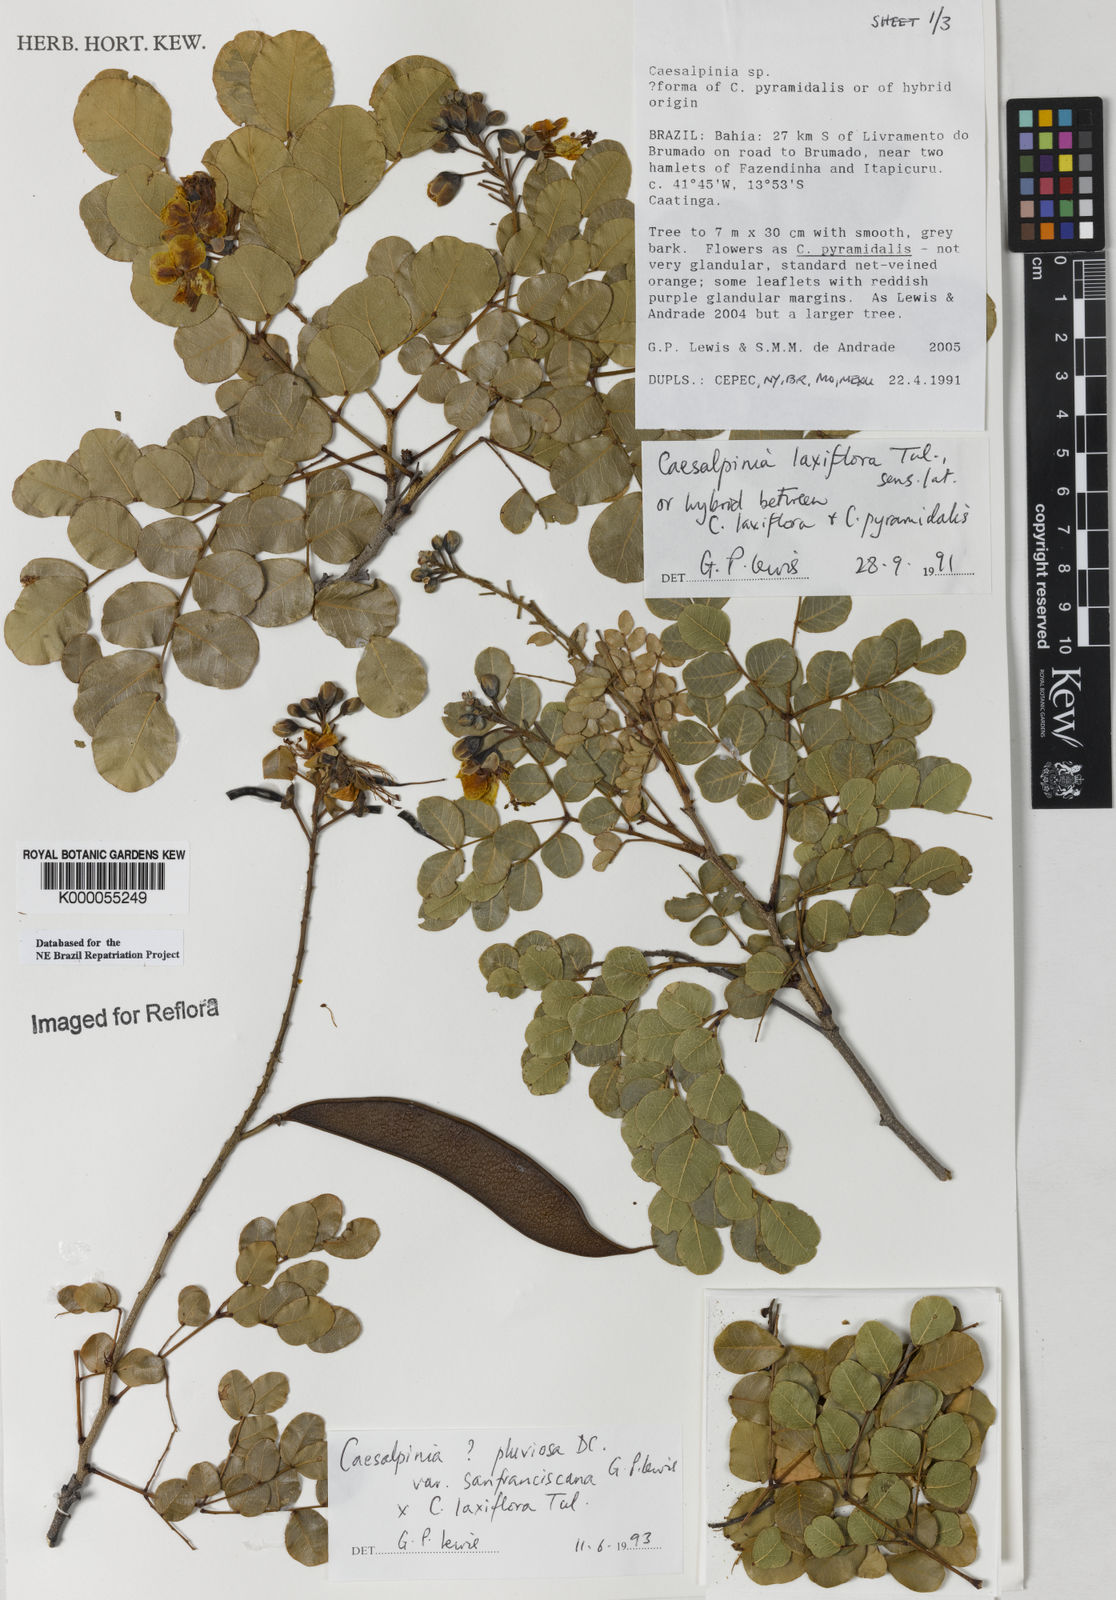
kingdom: Plantae
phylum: Tracheophyta
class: Magnoliopsida
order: Fabales
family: Fabaceae
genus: Cenostigma
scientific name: Cenostigma pluviosum
